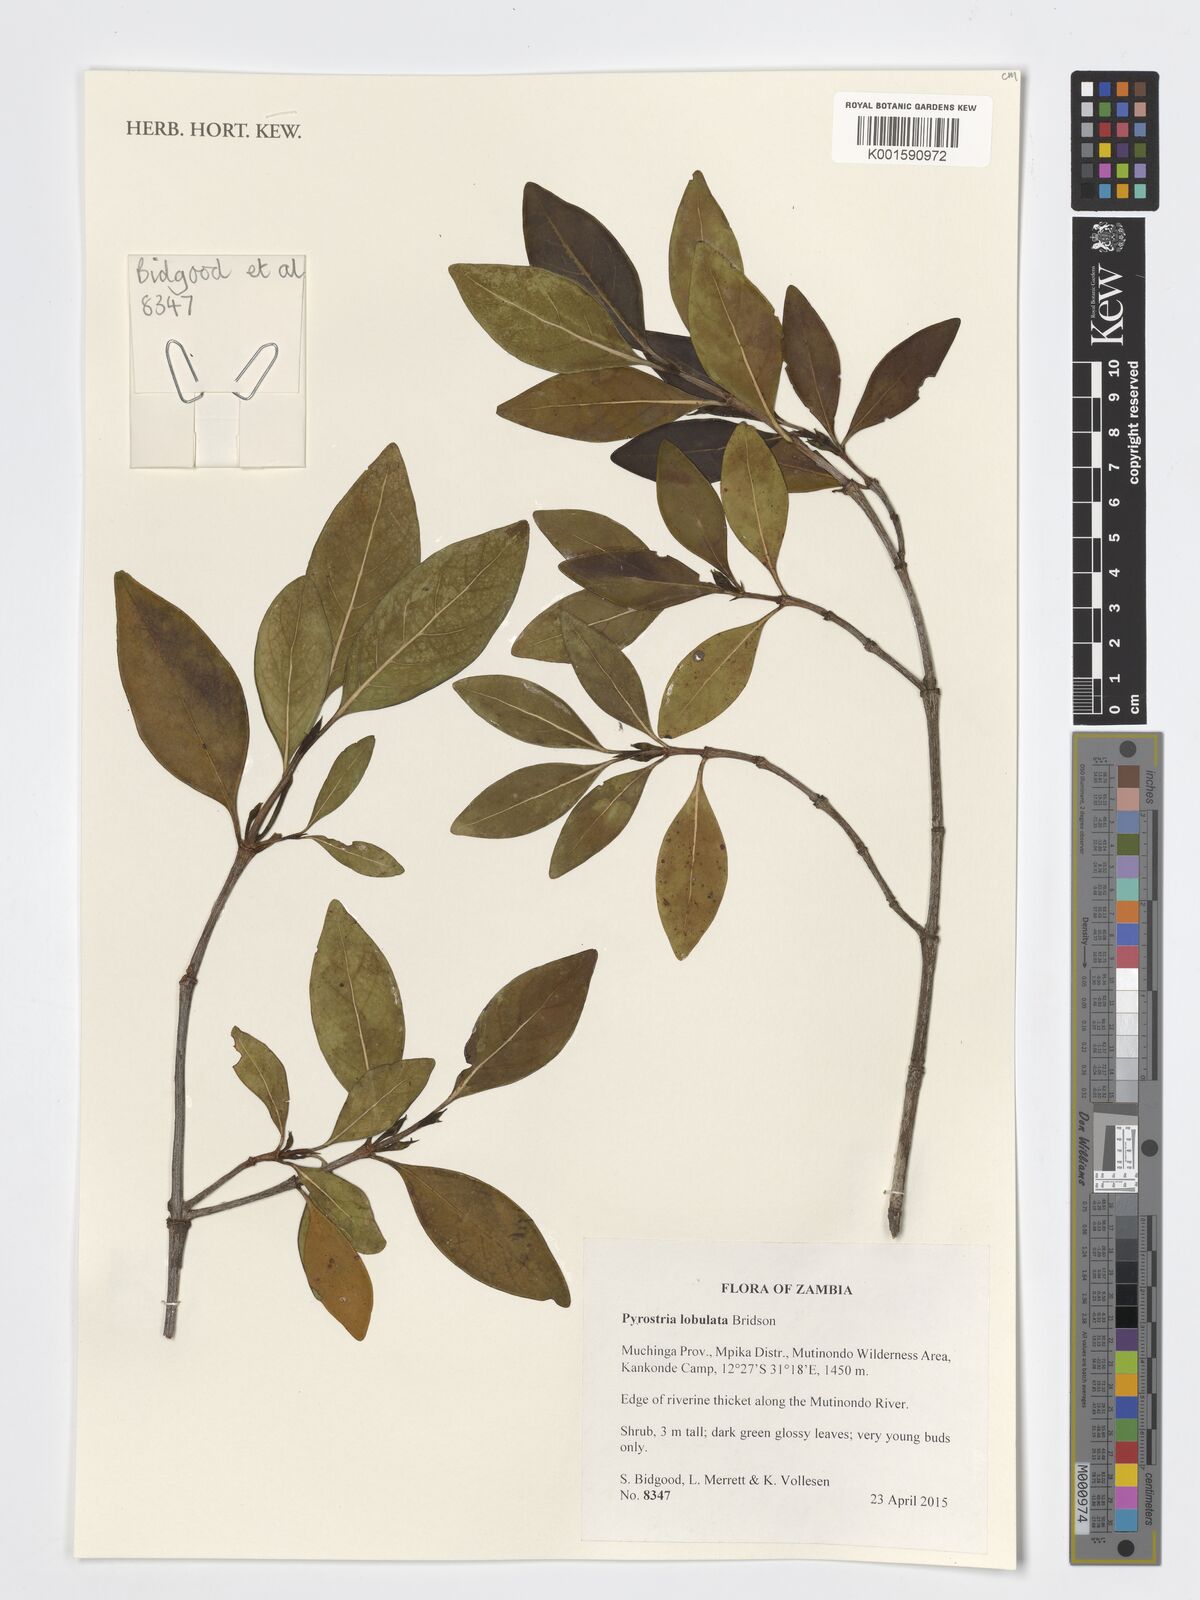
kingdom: Plantae
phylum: Tracheophyta
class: Magnoliopsida
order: Gentianales
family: Rubiaceae
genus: Pyrostria
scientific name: Pyrostria lobulata
